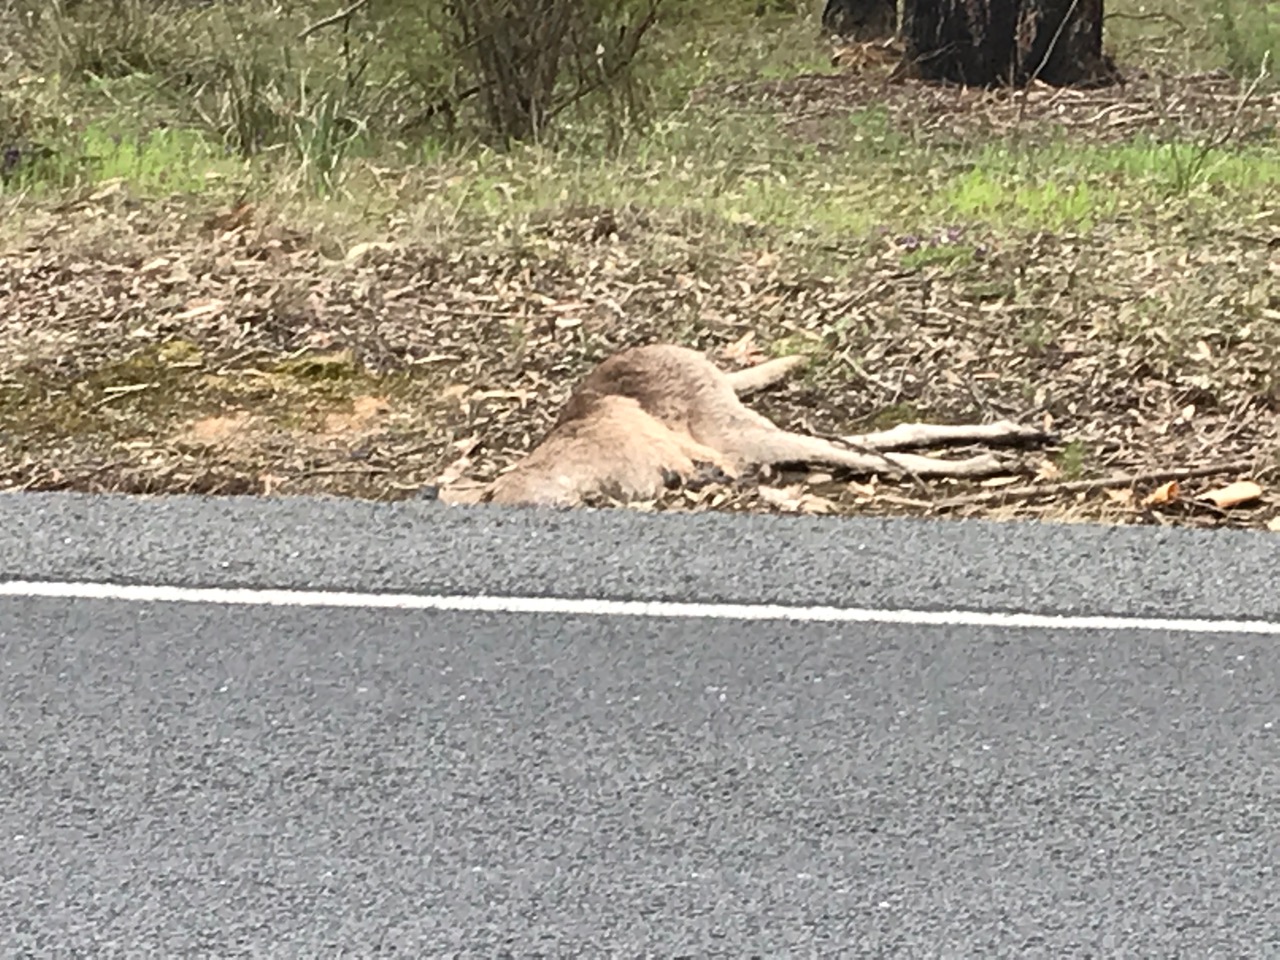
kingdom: Animalia
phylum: Chordata
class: Mammalia
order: Diprotodontia
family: Macropodidae
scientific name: Macropodidae
